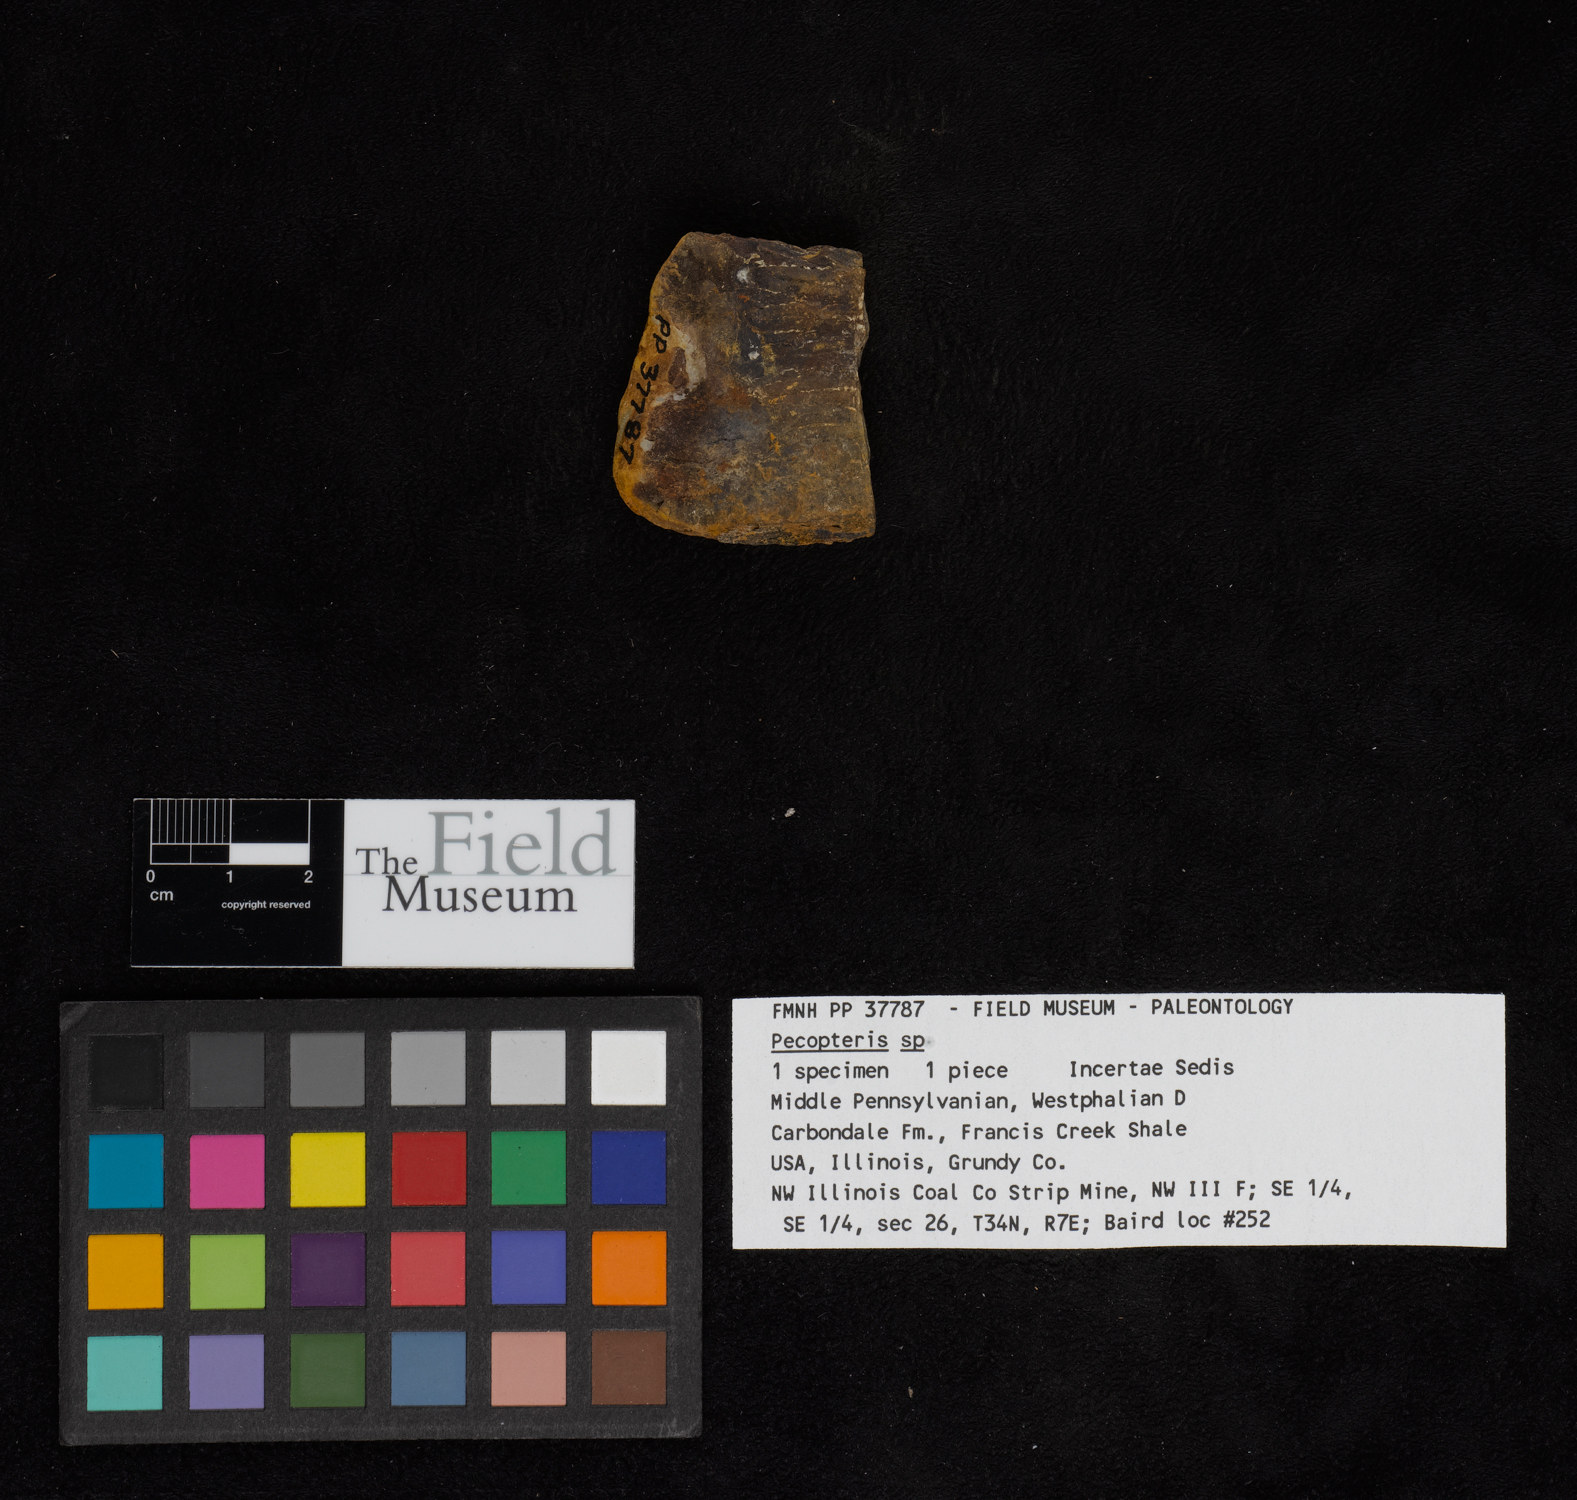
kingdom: Plantae
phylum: Tracheophyta
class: Polypodiopsida
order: Marattiales
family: Asterothecaceae
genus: Pecopteris
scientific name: Pecopteris
